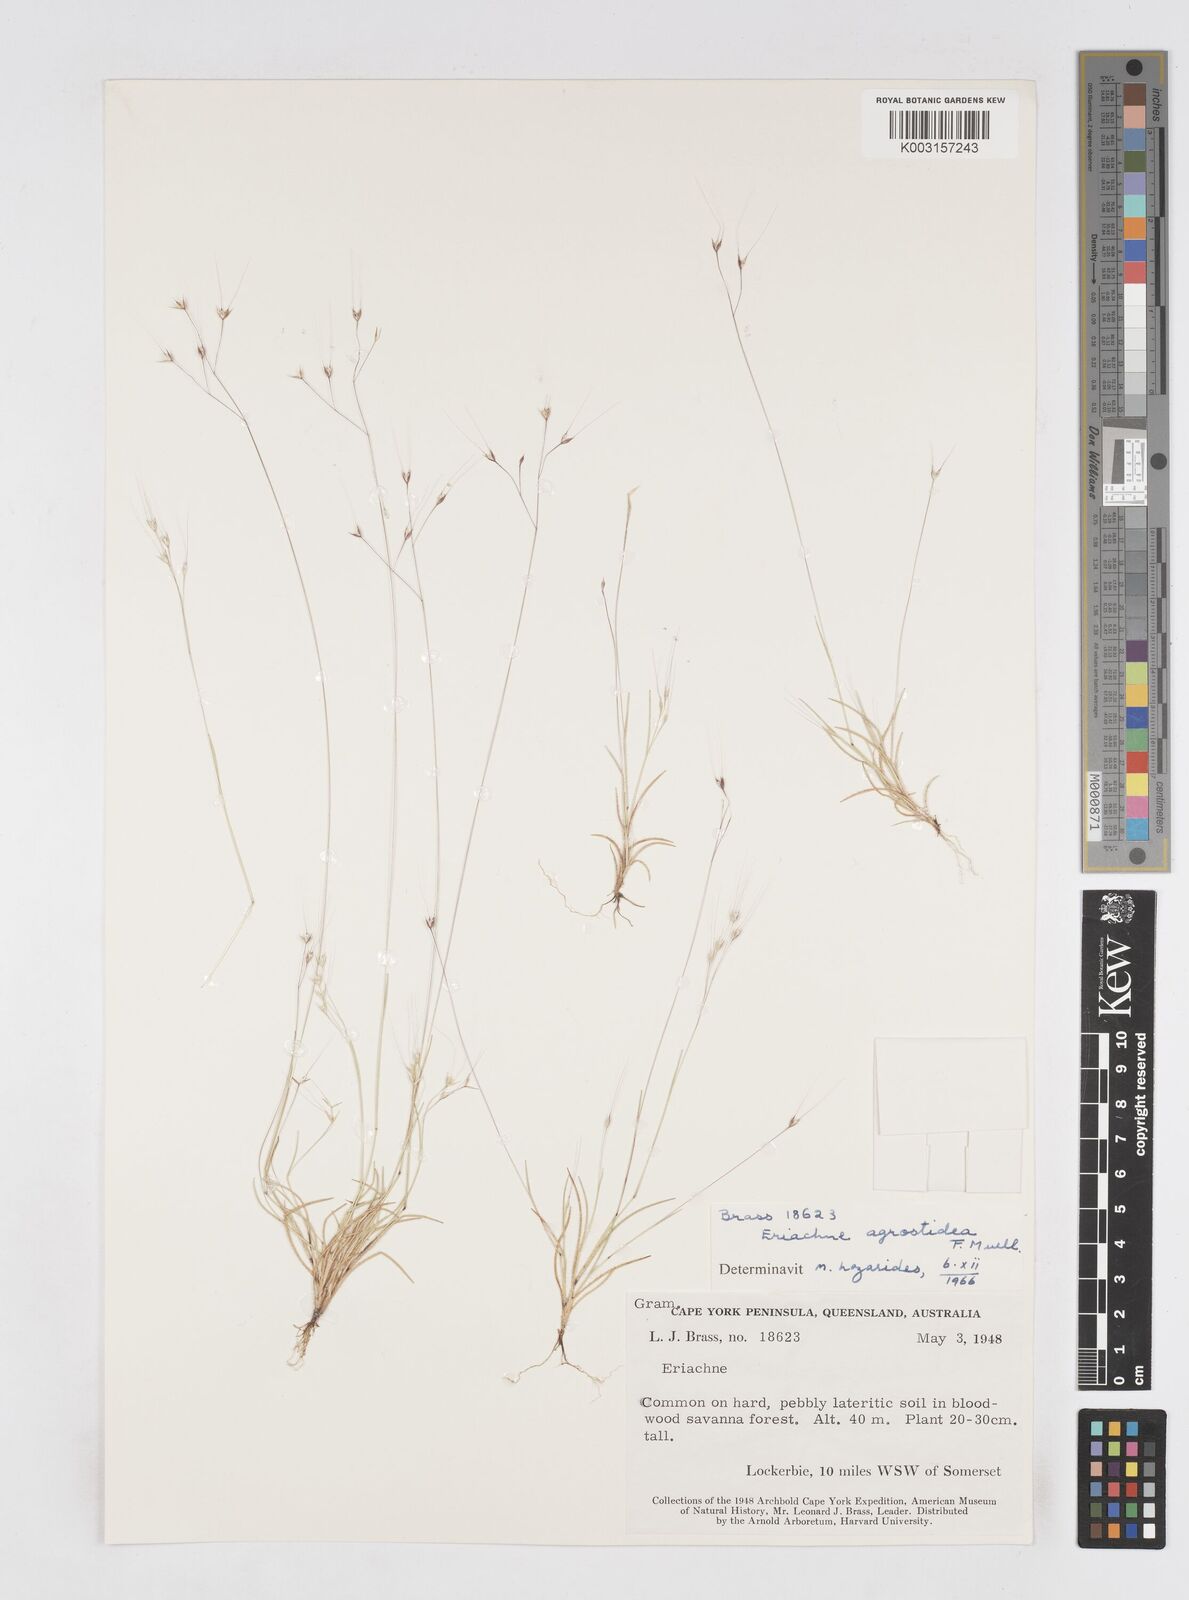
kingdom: Plantae
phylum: Tracheophyta
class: Liliopsida
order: Poales
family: Poaceae
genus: Eriachne
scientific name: Eriachne agrostidea
